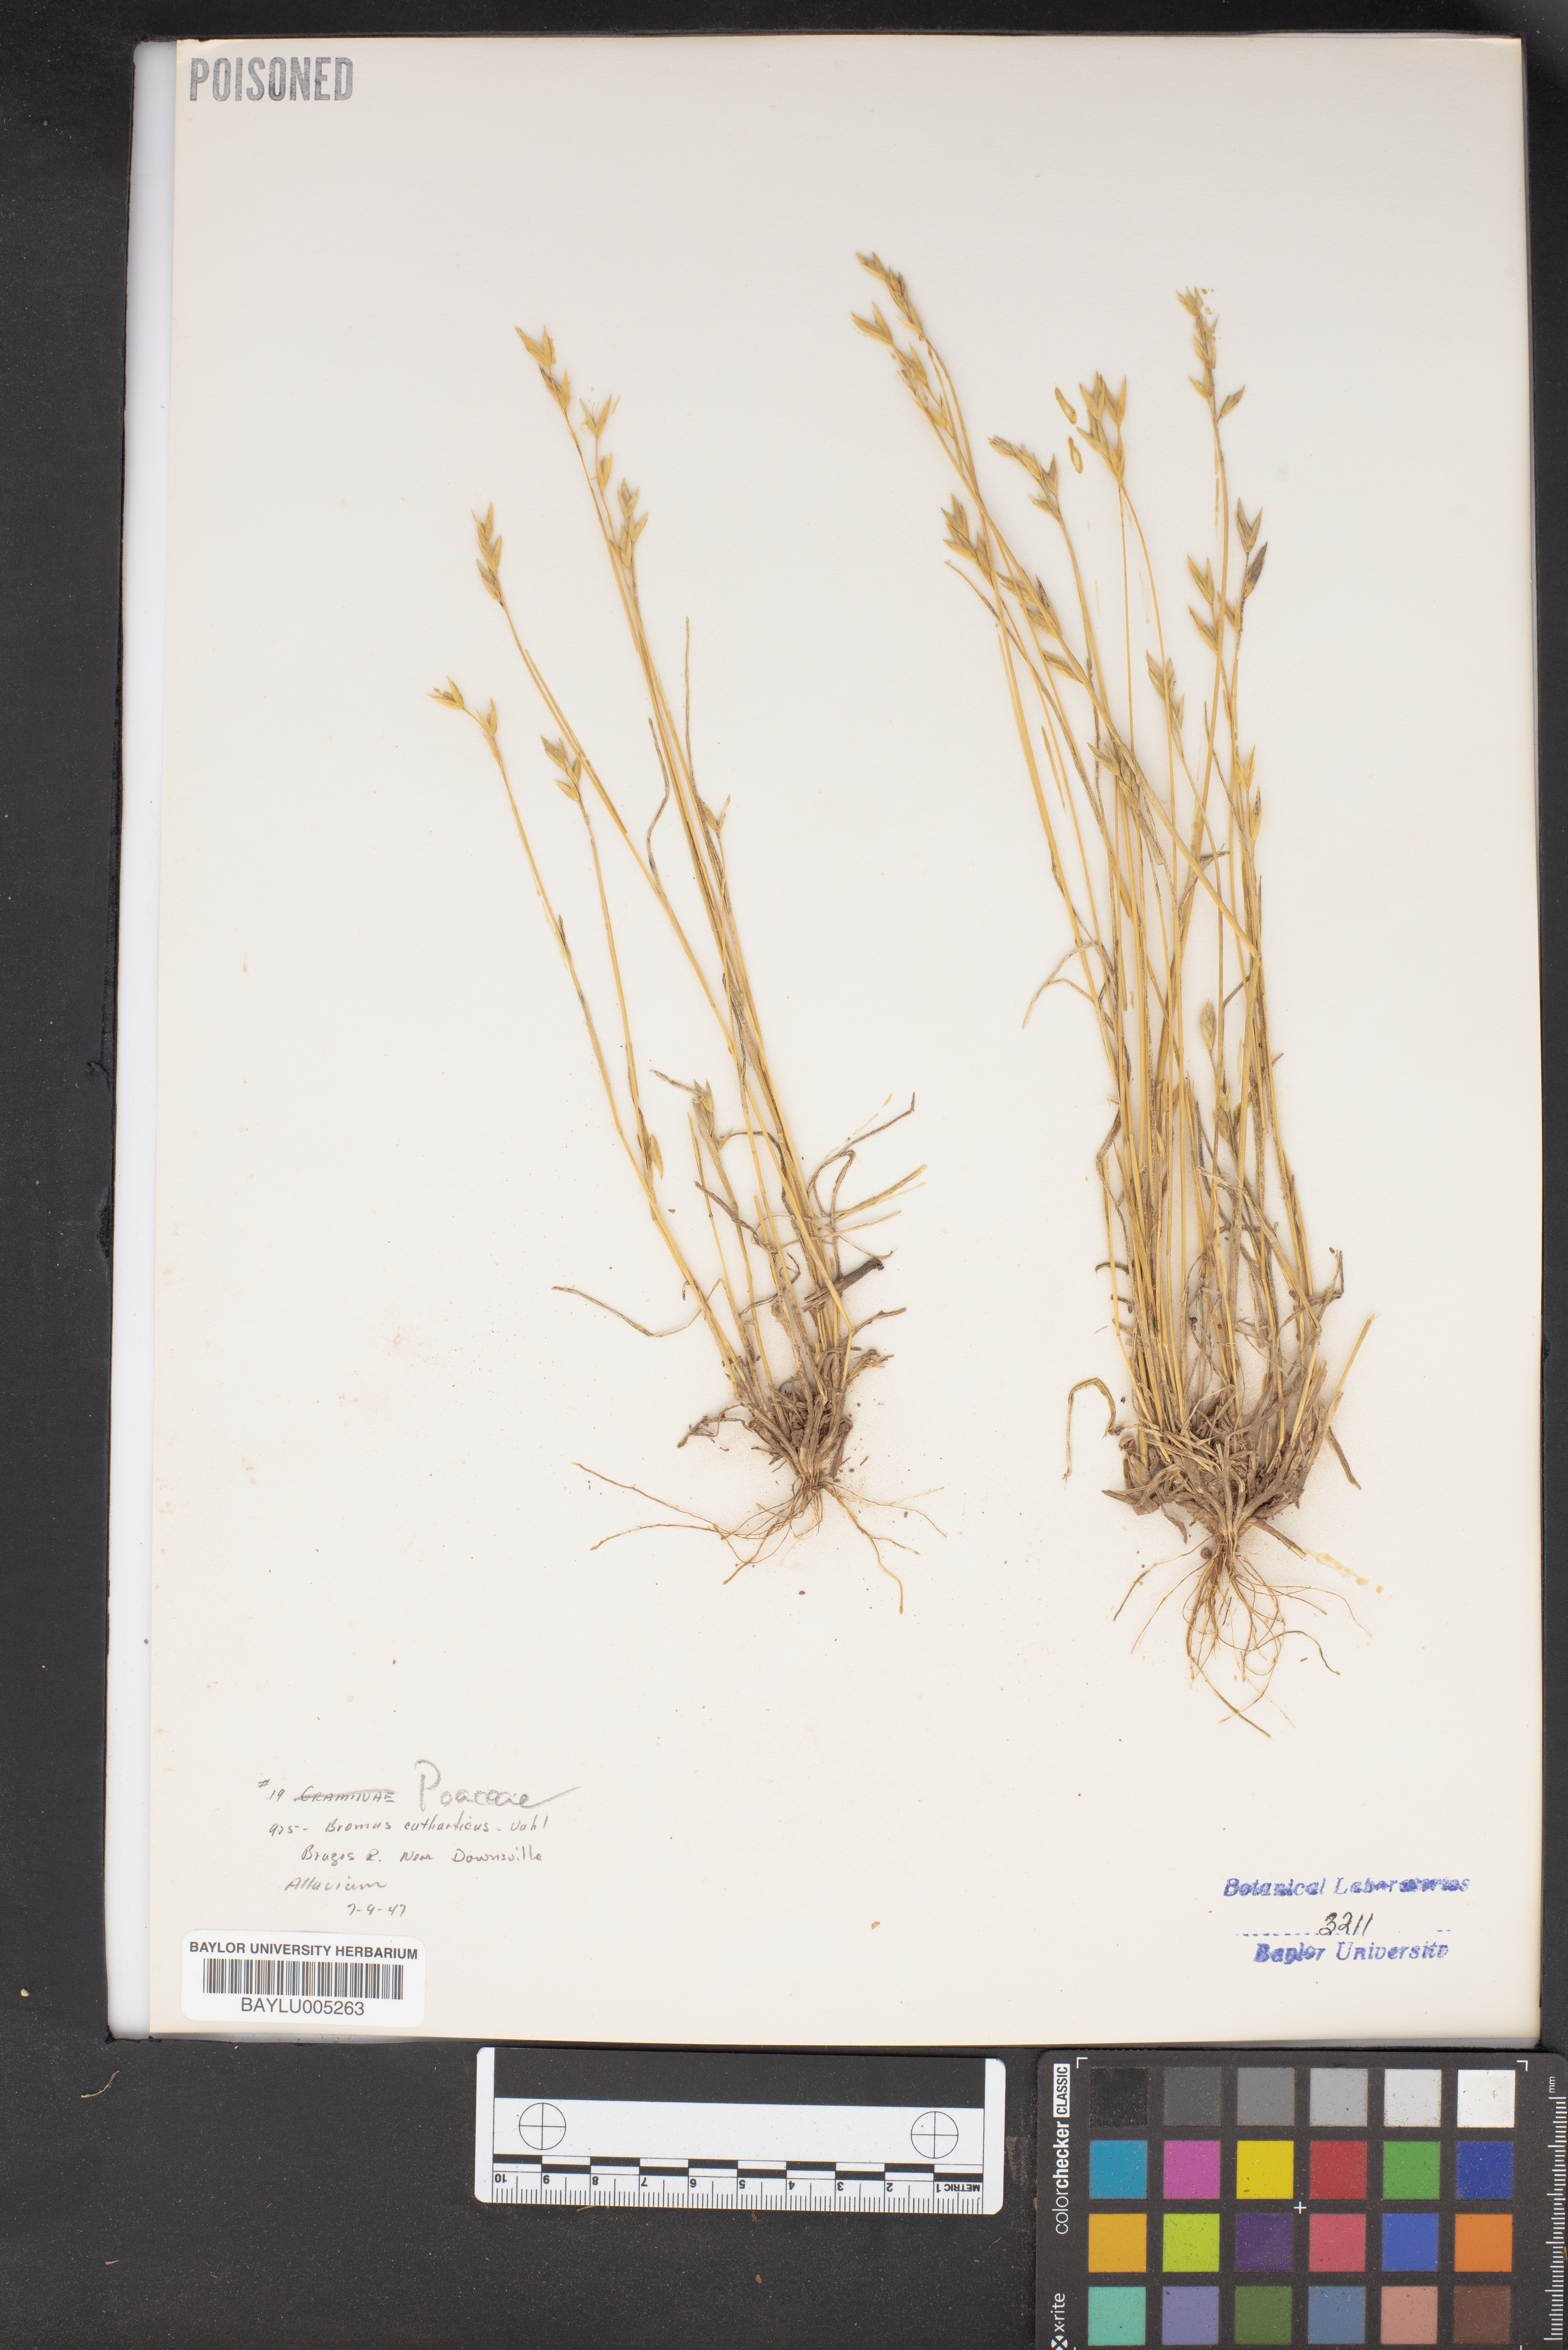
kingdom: Plantae
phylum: Tracheophyta
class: Liliopsida
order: Poales
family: Poaceae
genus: Bromus
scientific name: Bromus catharticus
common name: Rescuegrass
